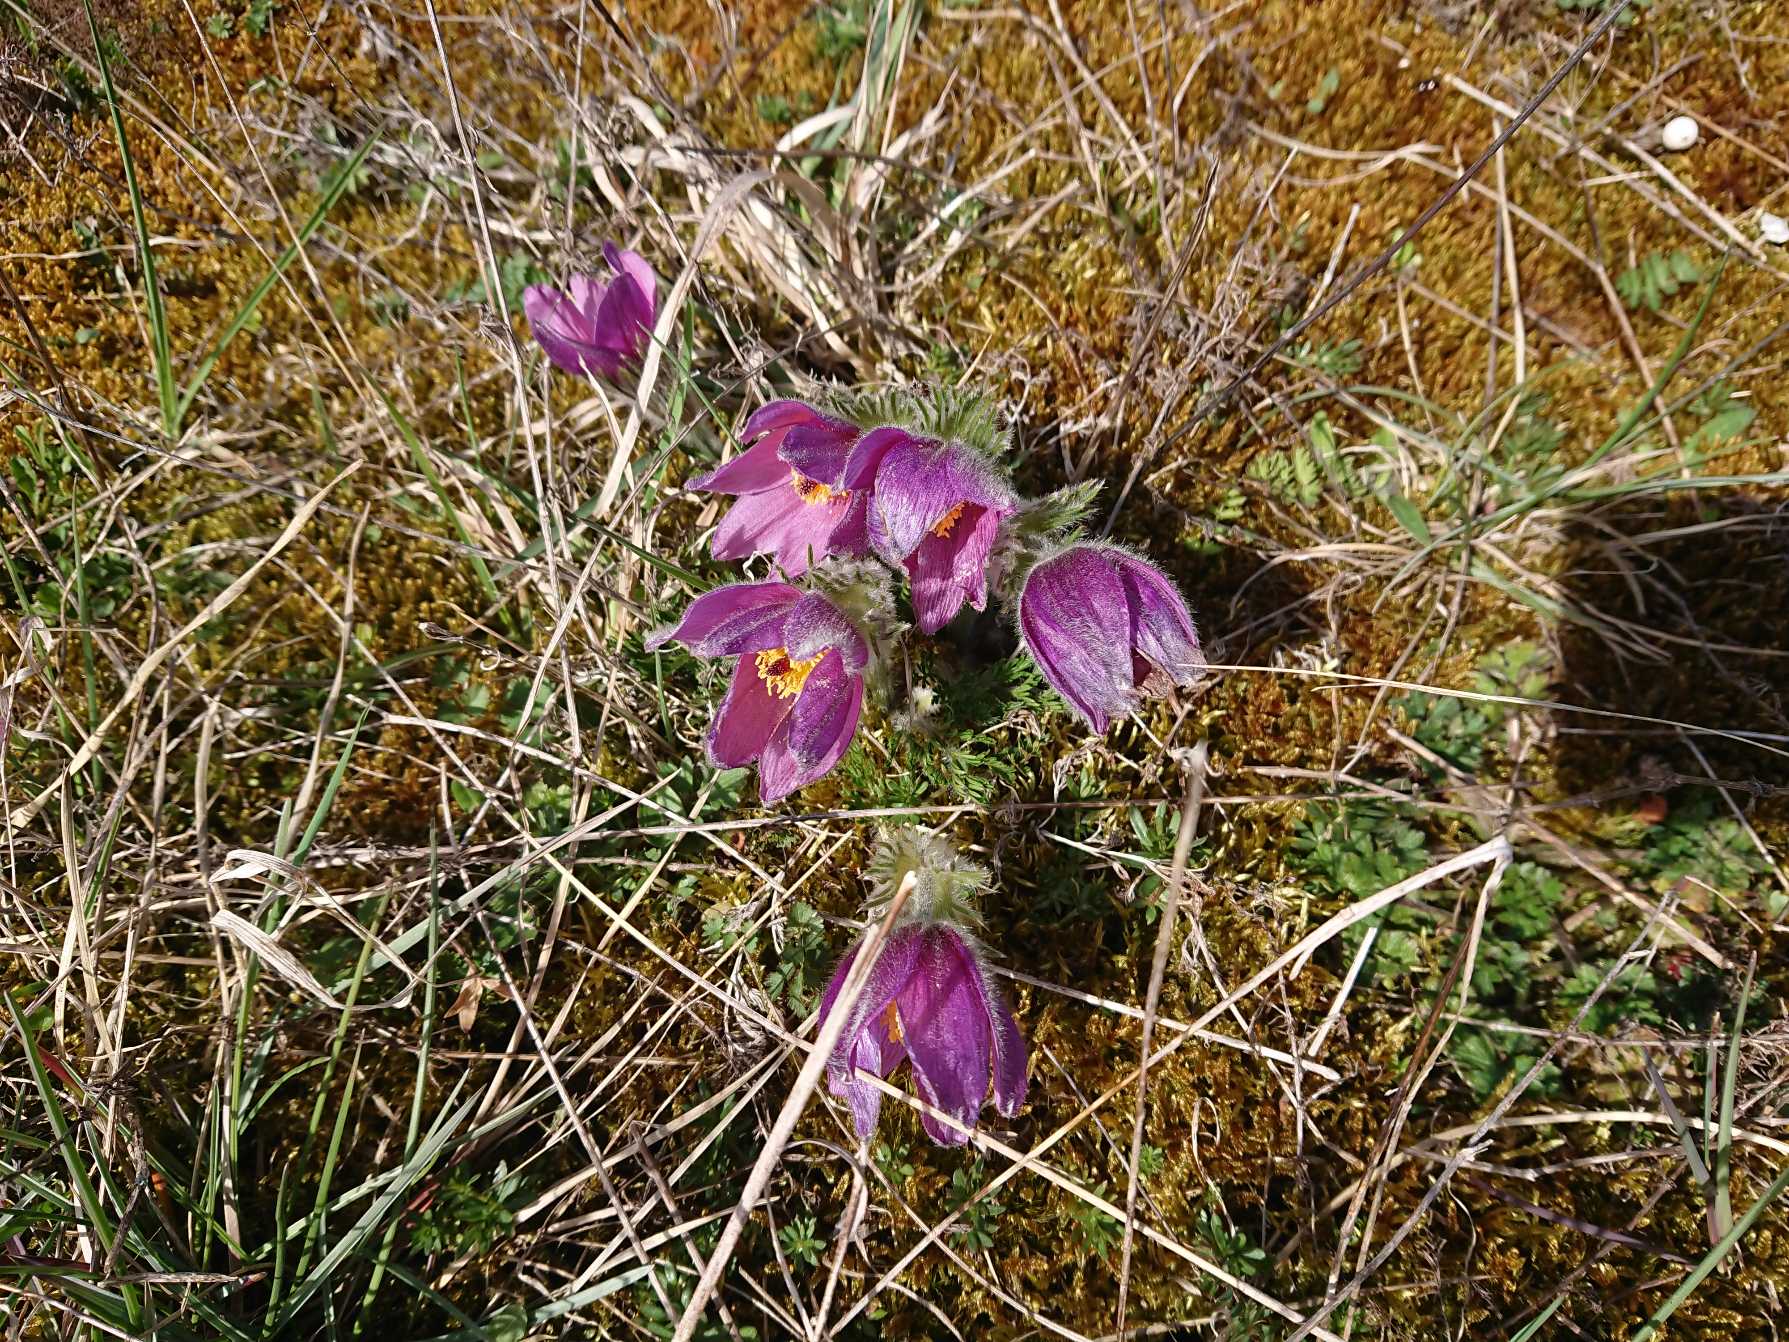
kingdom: Plantae
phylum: Tracheophyta
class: Magnoliopsida
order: Ranunculales
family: Ranunculaceae
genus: Pulsatilla
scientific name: Pulsatilla vulgaris
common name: Opret kobjælde
